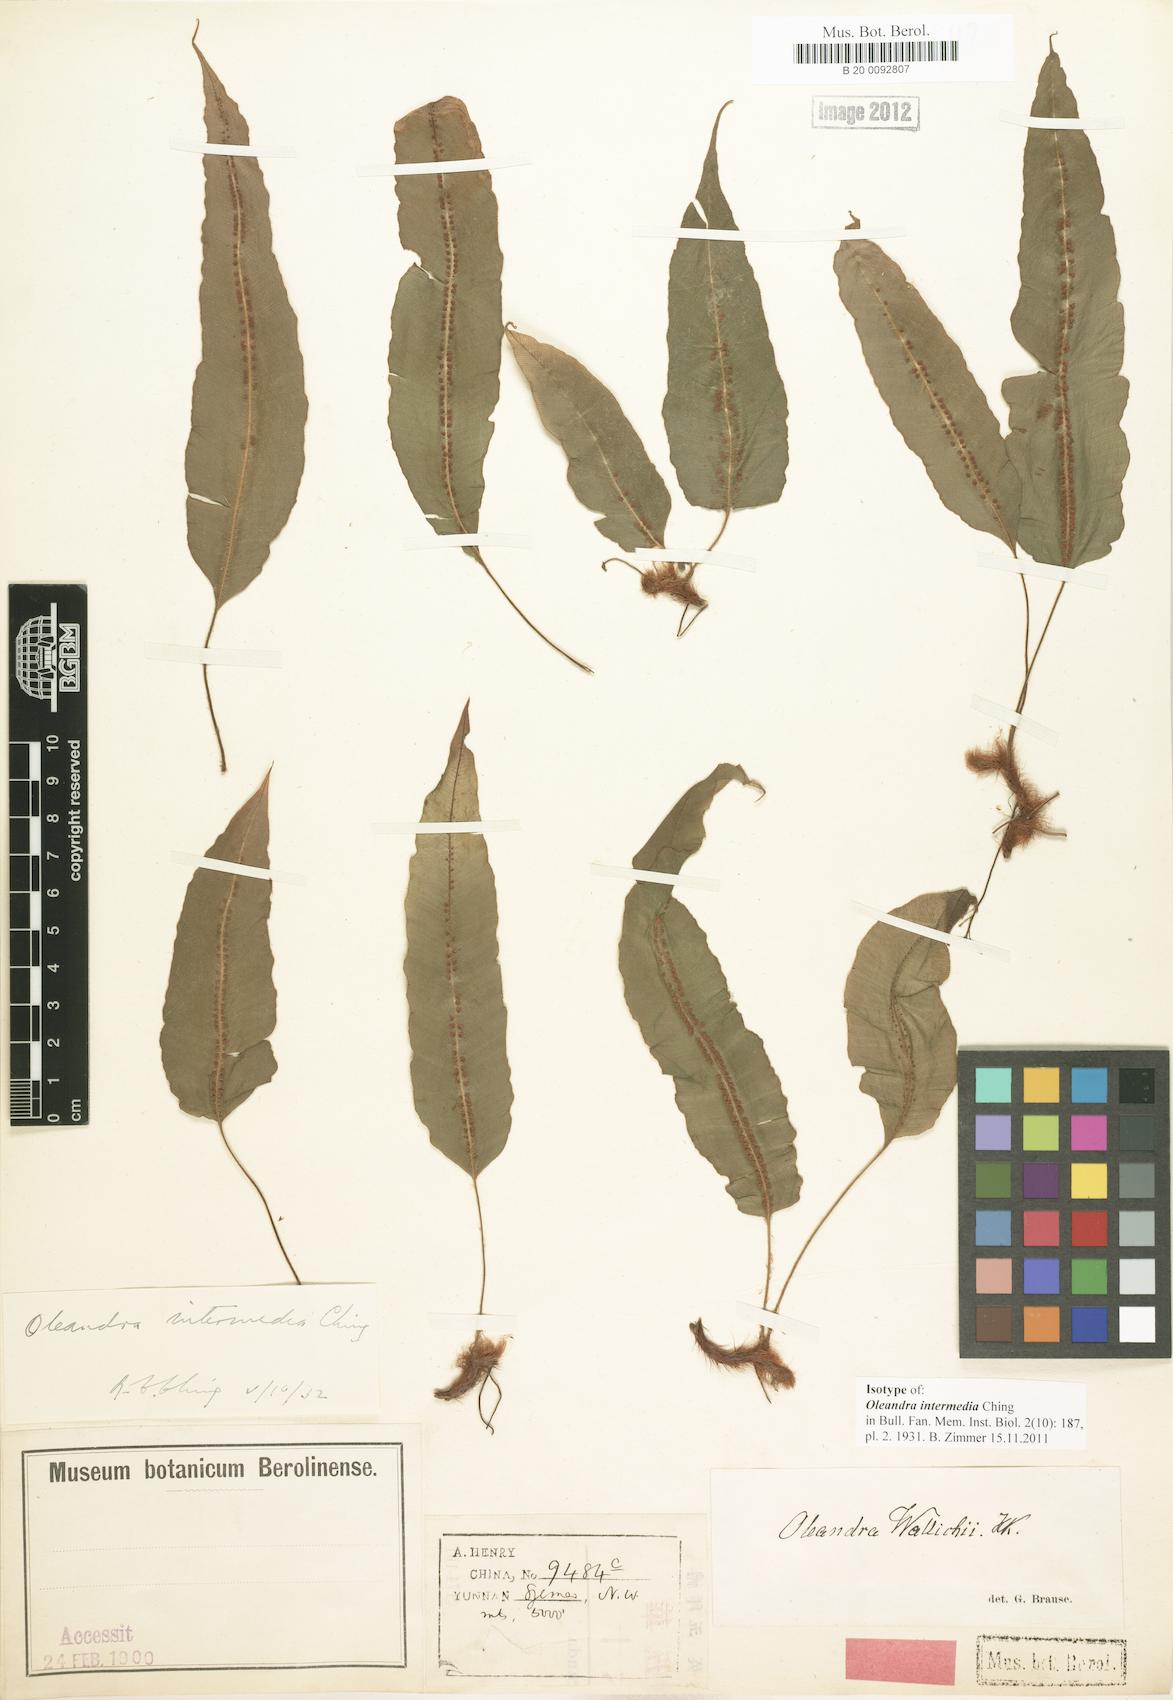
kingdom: Plantae
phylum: Tracheophyta
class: Polypodiopsida
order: Polypodiales
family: Oleandraceae
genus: Oleandra
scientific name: Oleandra cumingii
